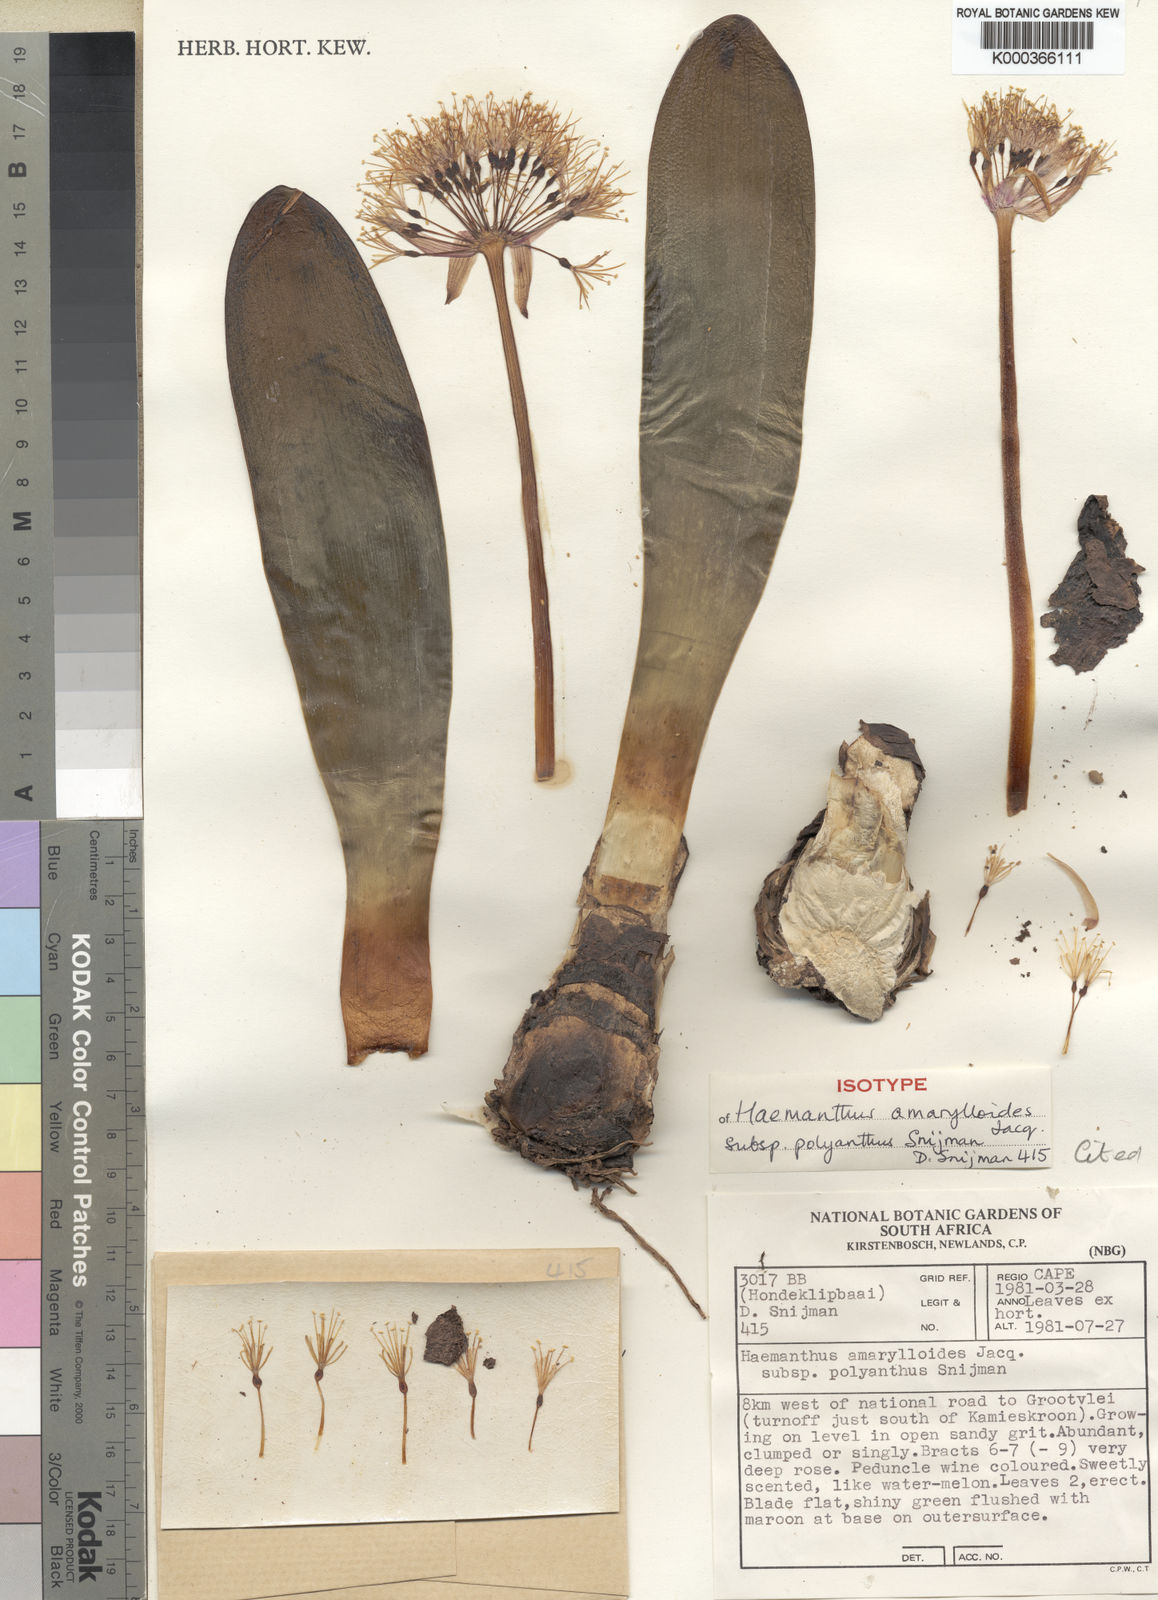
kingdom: Plantae
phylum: Tracheophyta
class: Liliopsida
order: Asparagales
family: Amaryllidaceae
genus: Haemanthus
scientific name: Haemanthus amarylloides
